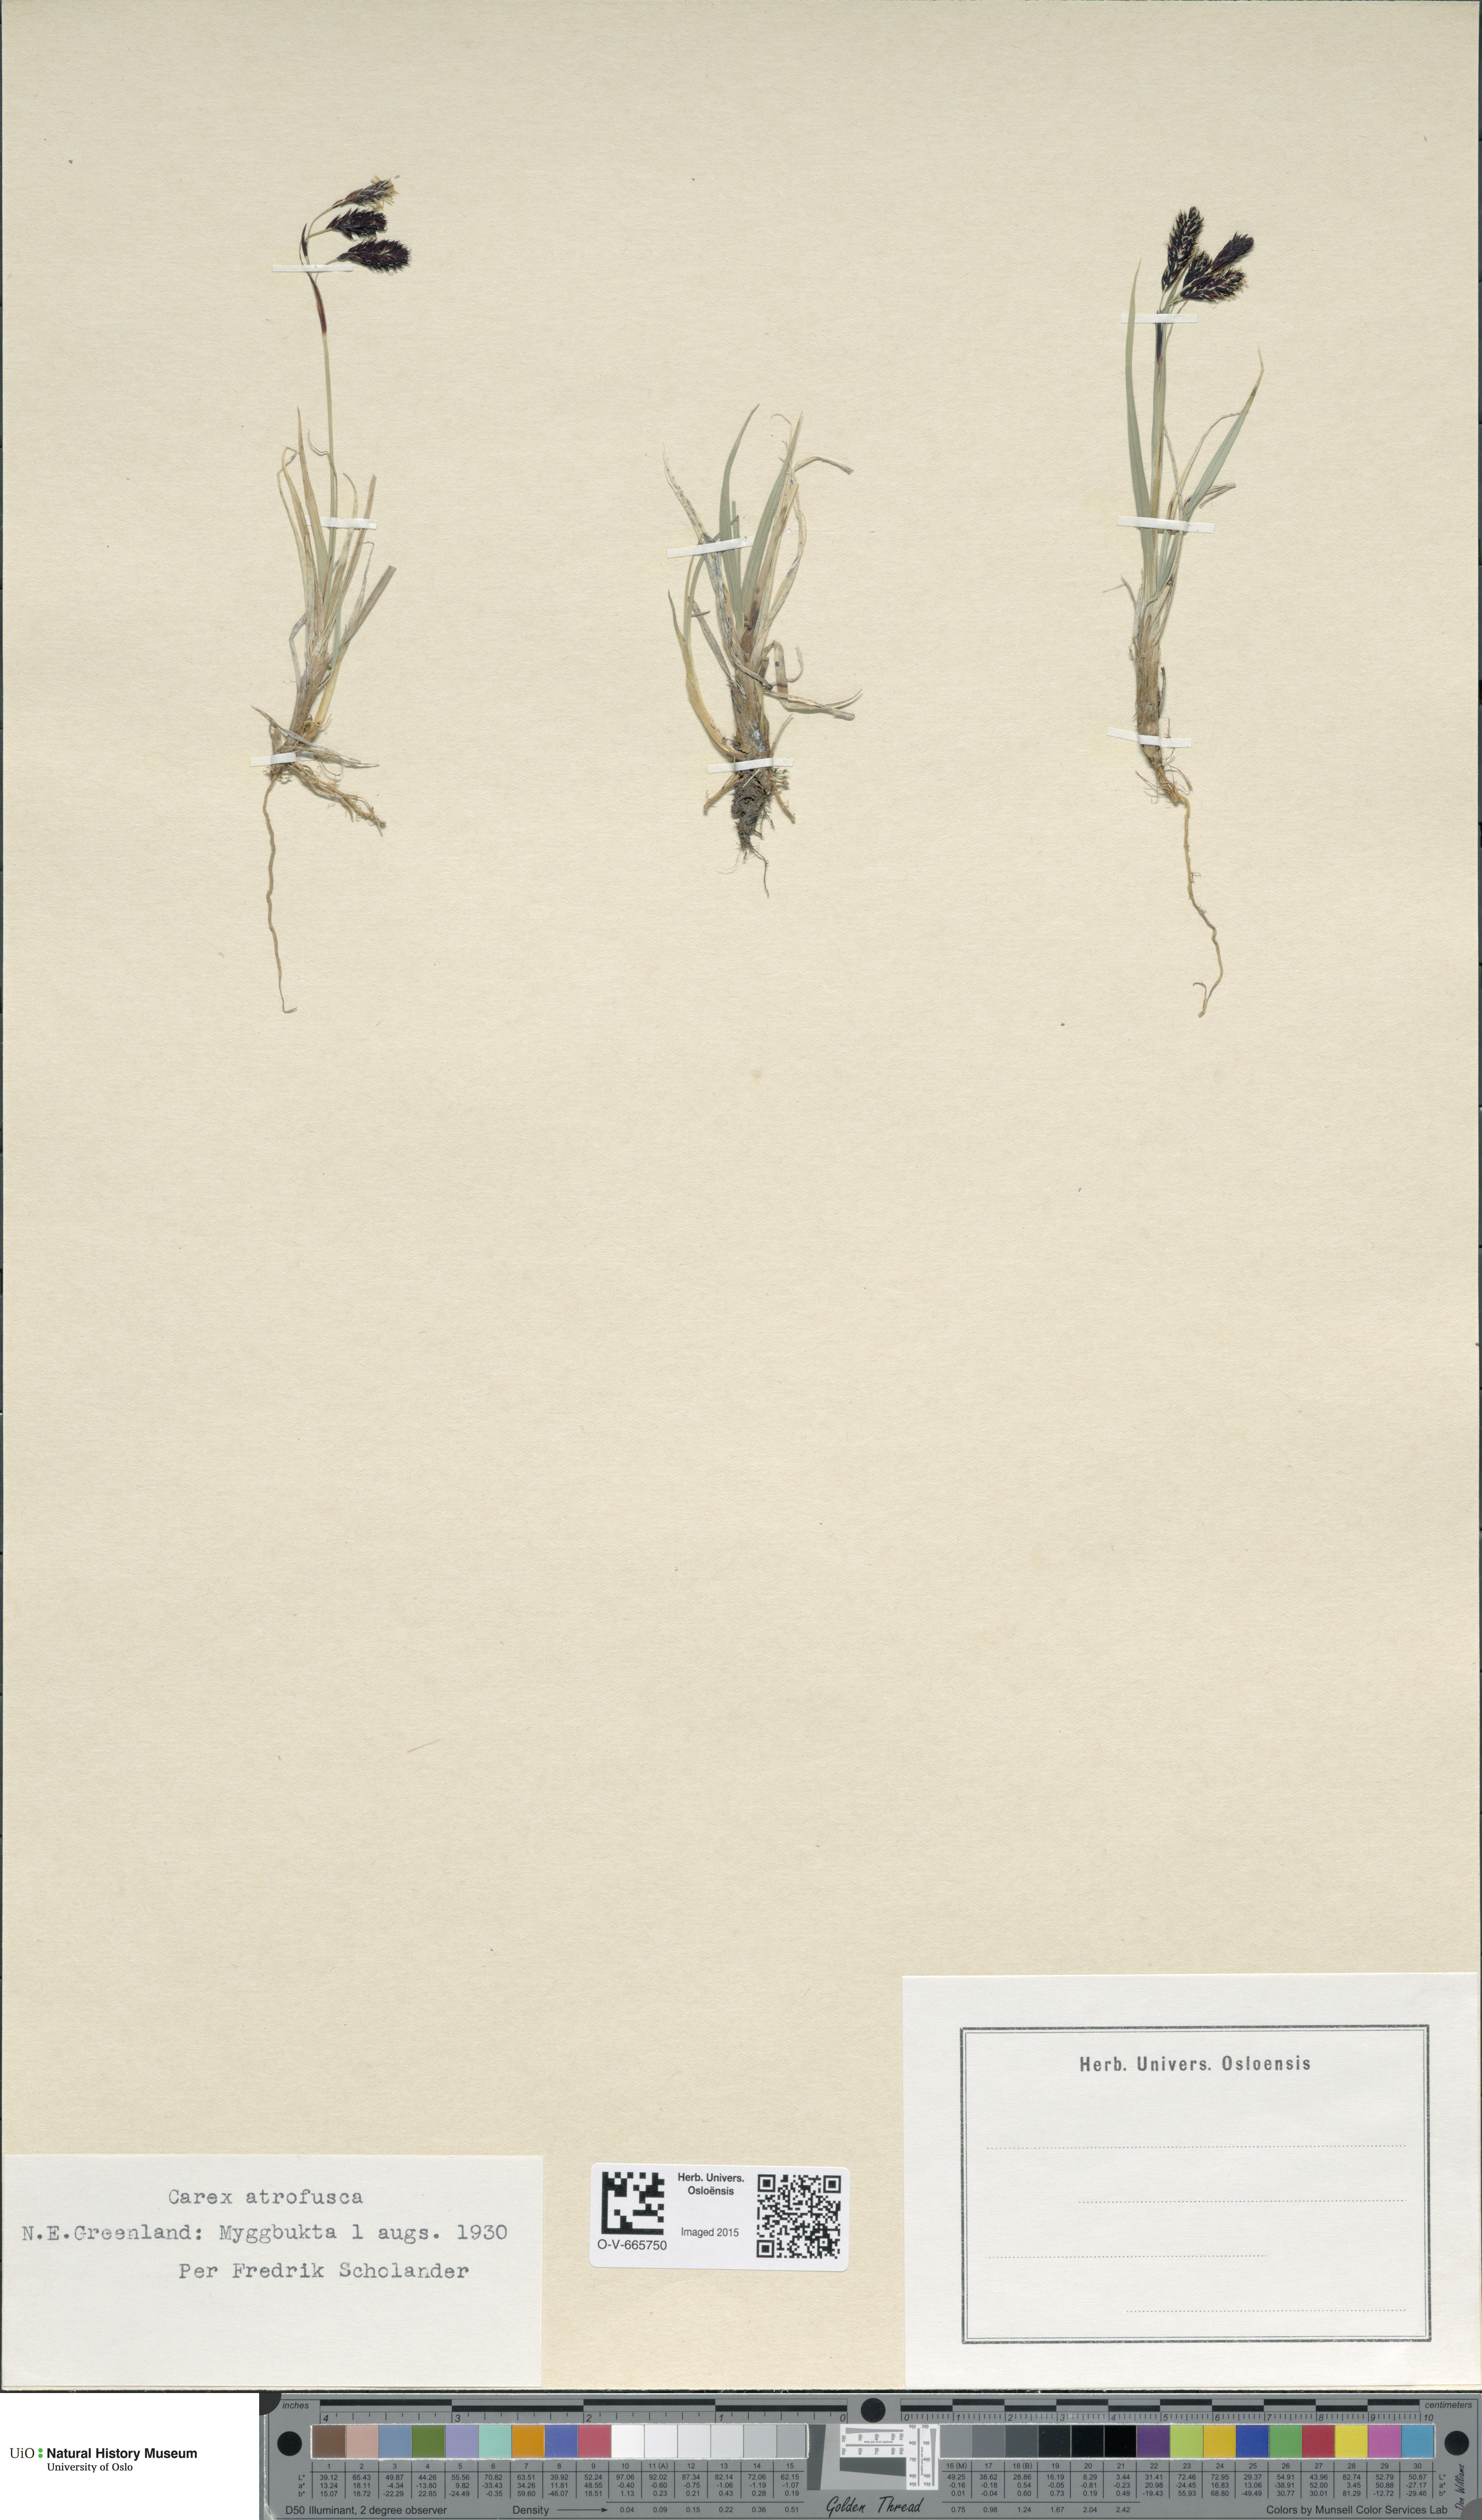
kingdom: Plantae
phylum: Tracheophyta
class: Liliopsida
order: Poales
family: Cyperaceae
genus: Carex
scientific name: Carex atrofusca
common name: Scorched alpine-sedge
